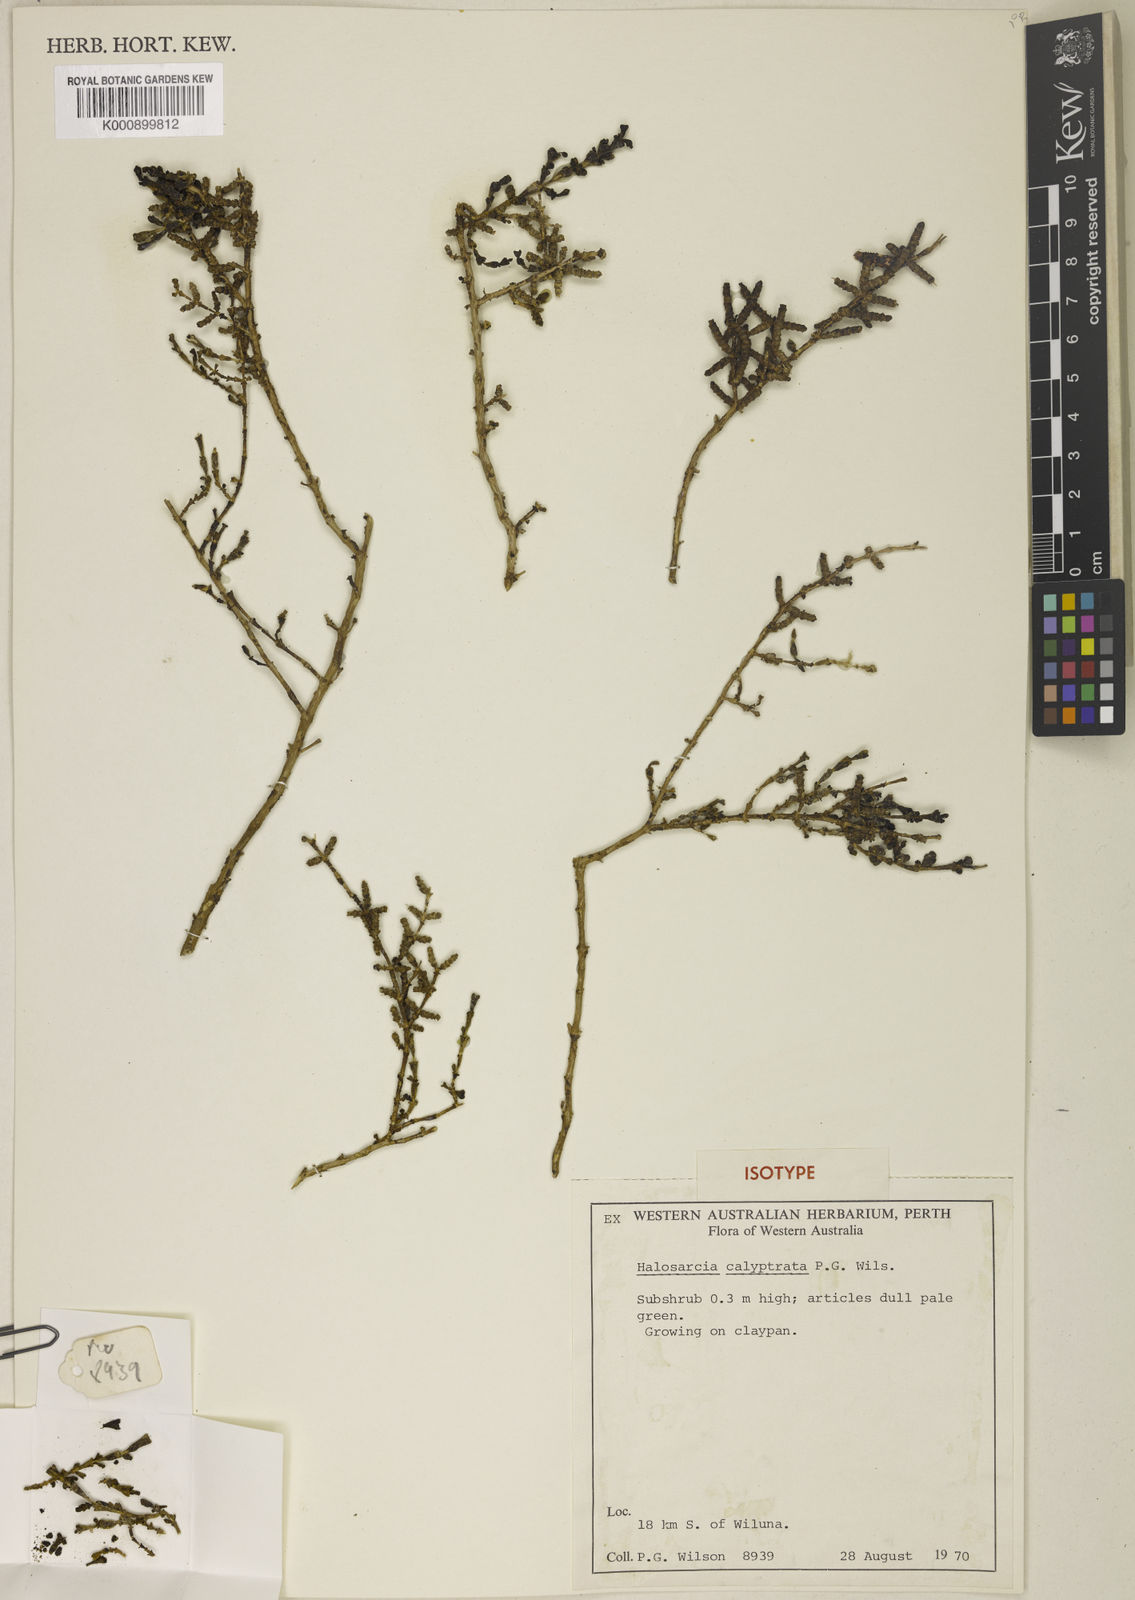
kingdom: Plantae
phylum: Tracheophyta
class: Magnoliopsida
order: Caryophyllales
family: Amaranthaceae
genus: Tecticornia
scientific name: Tecticornia calyptrata
